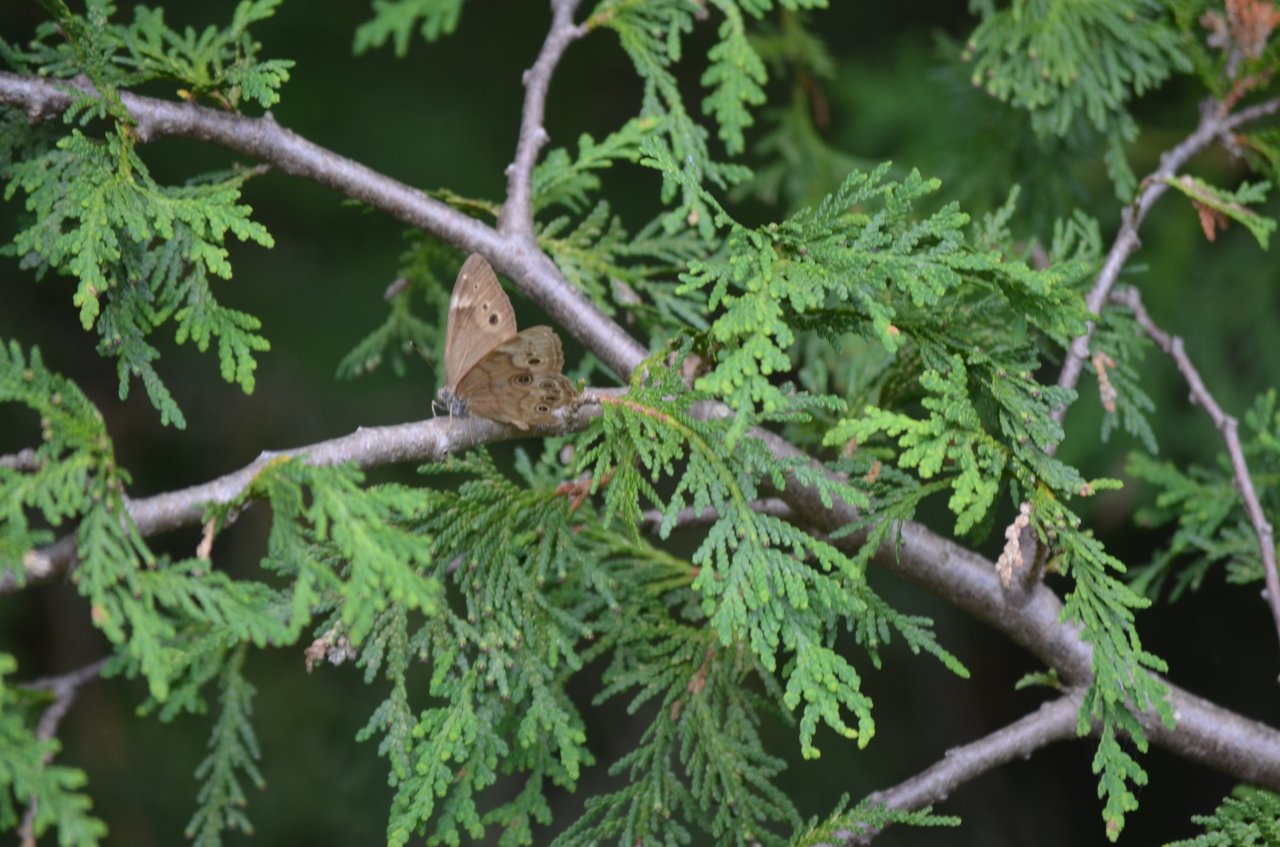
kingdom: Animalia
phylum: Arthropoda
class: Insecta
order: Lepidoptera
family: Nymphalidae
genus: Lethe
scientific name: Lethe anthedon
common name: Northern Pearly-Eye
